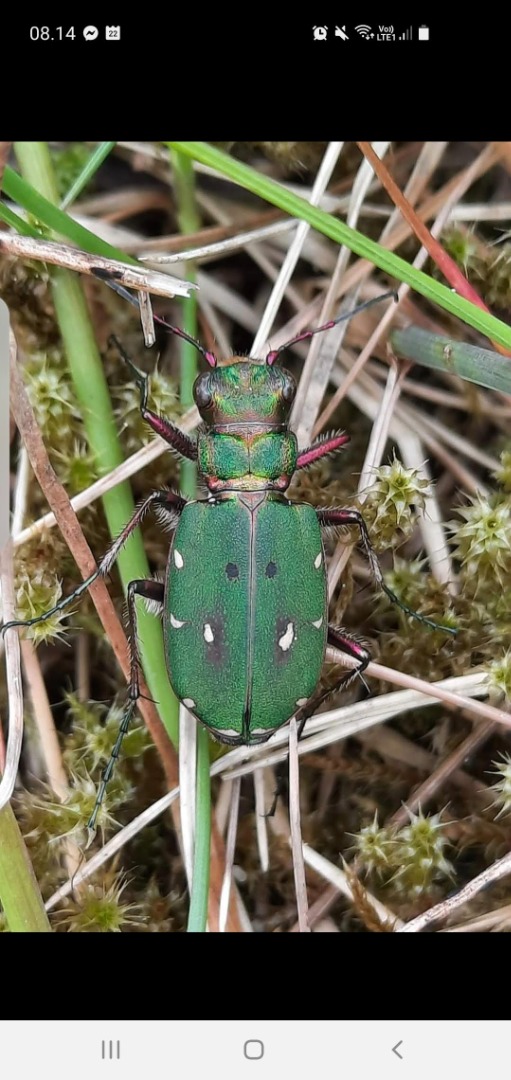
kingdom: Animalia
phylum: Arthropoda
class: Insecta
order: Coleoptera
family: Carabidae
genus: Cicindela
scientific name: Cicindela campestris
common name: Grøn sandspringer
